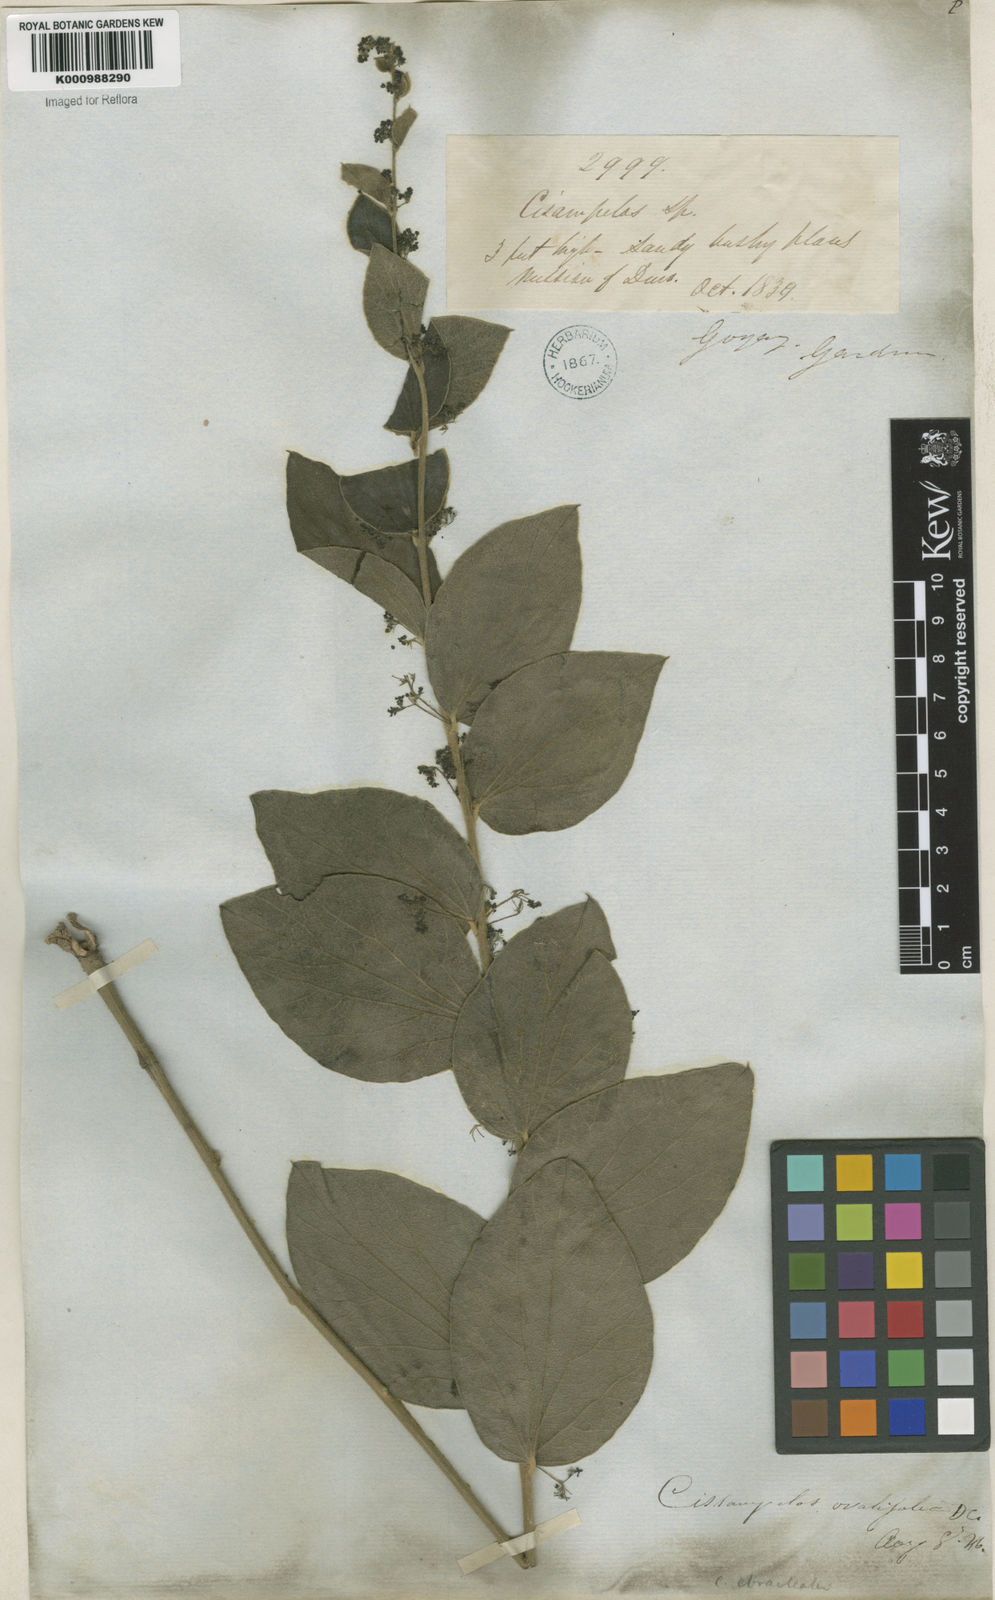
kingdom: Plantae
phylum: Tracheophyta
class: Magnoliopsida
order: Ranunculales
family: Menispermaceae
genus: Cissampelos
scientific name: Cissampelos ovalifolia
